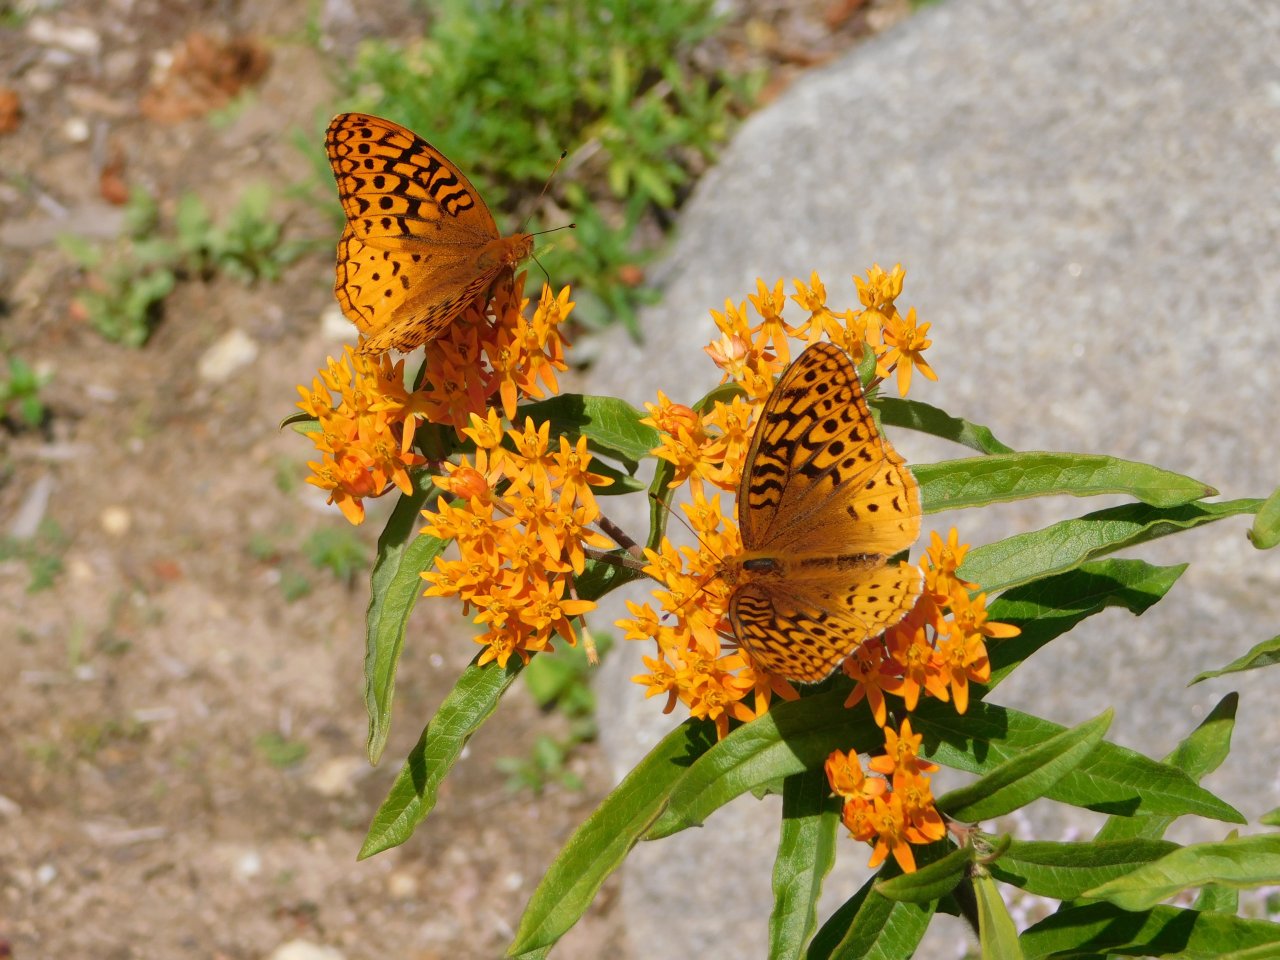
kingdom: Animalia
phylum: Arthropoda
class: Insecta
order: Lepidoptera
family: Nymphalidae
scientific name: Nymphalidae
